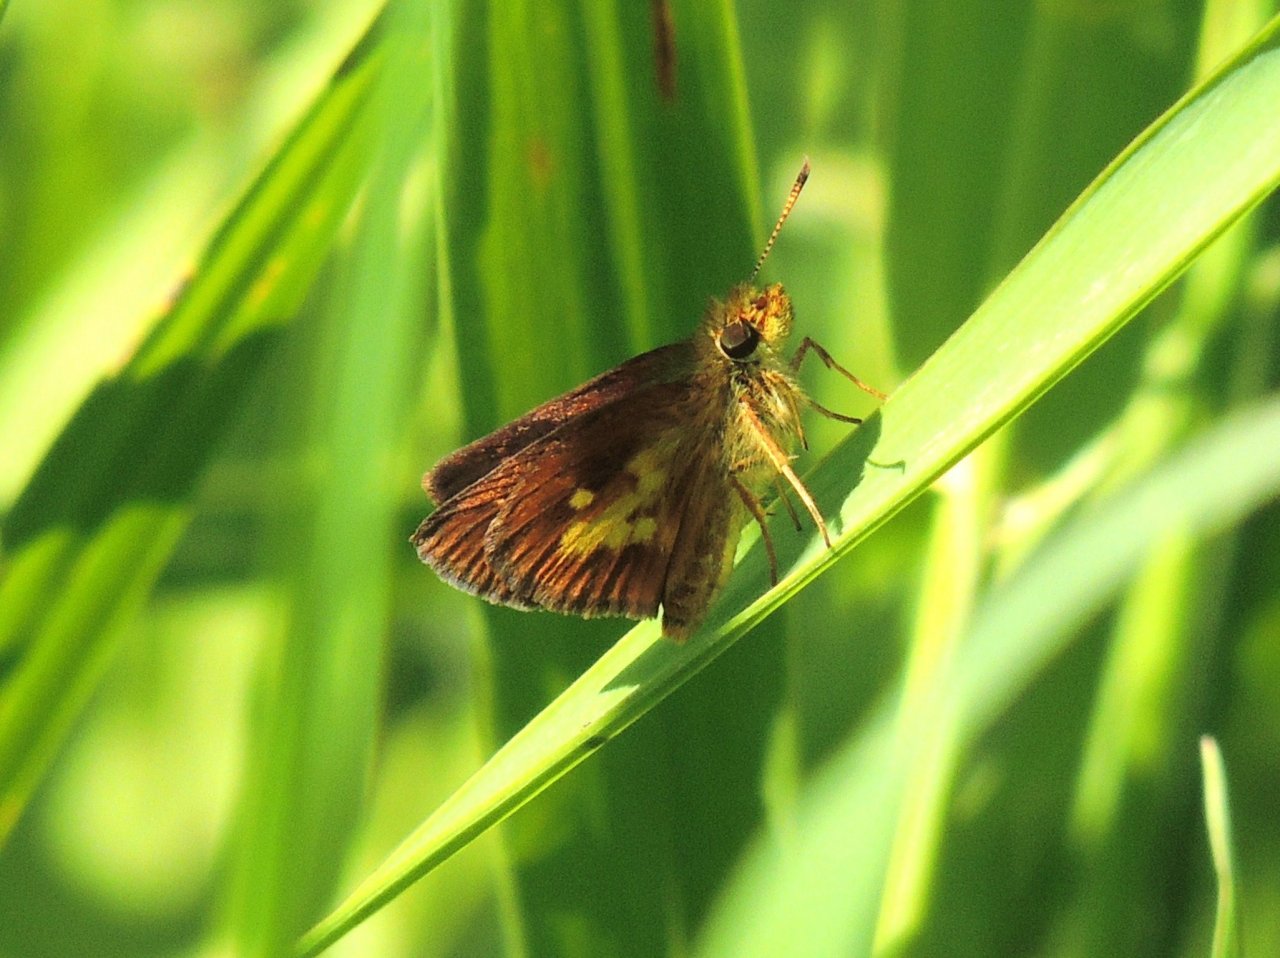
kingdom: Animalia
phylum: Arthropoda
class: Insecta
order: Lepidoptera
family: Hesperiidae
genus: Poanes
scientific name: Poanes massasoit
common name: Mulberry Wing
